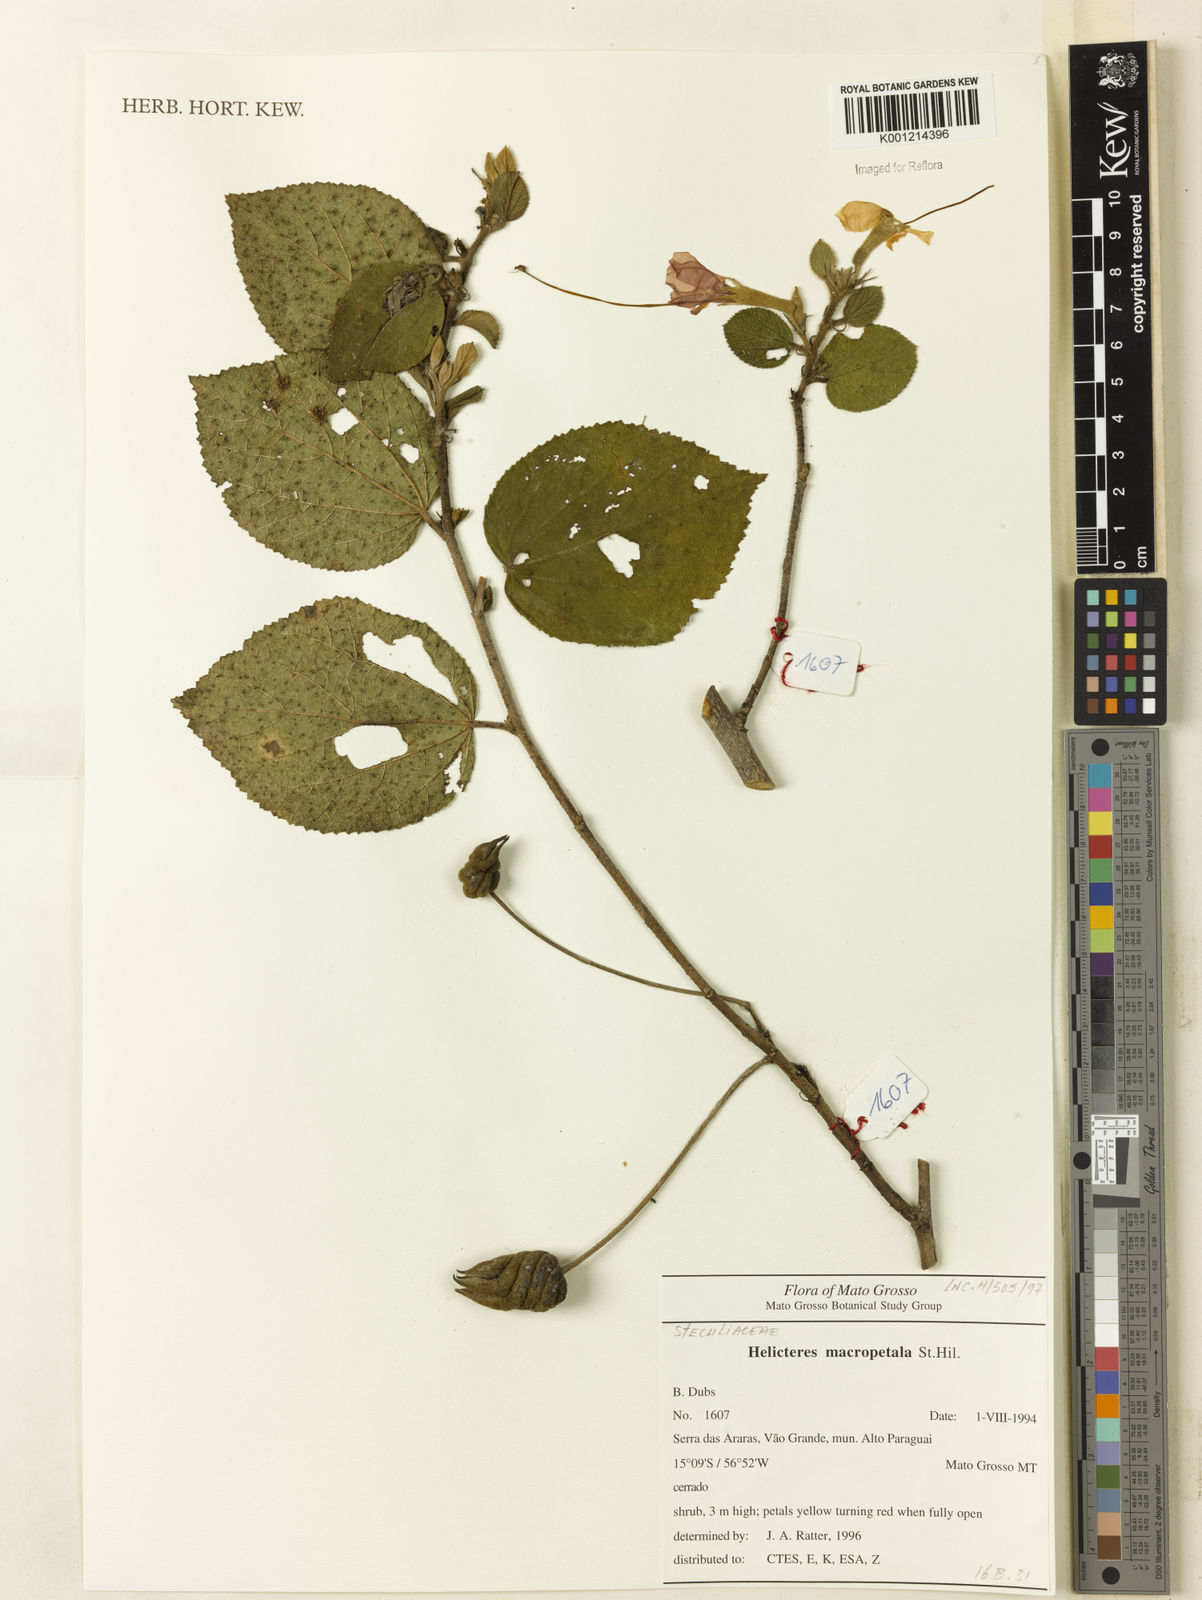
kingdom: Plantae
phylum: Tracheophyta
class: Magnoliopsida
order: Malvales
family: Malvaceae
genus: Helicteres
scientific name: Helicteres
